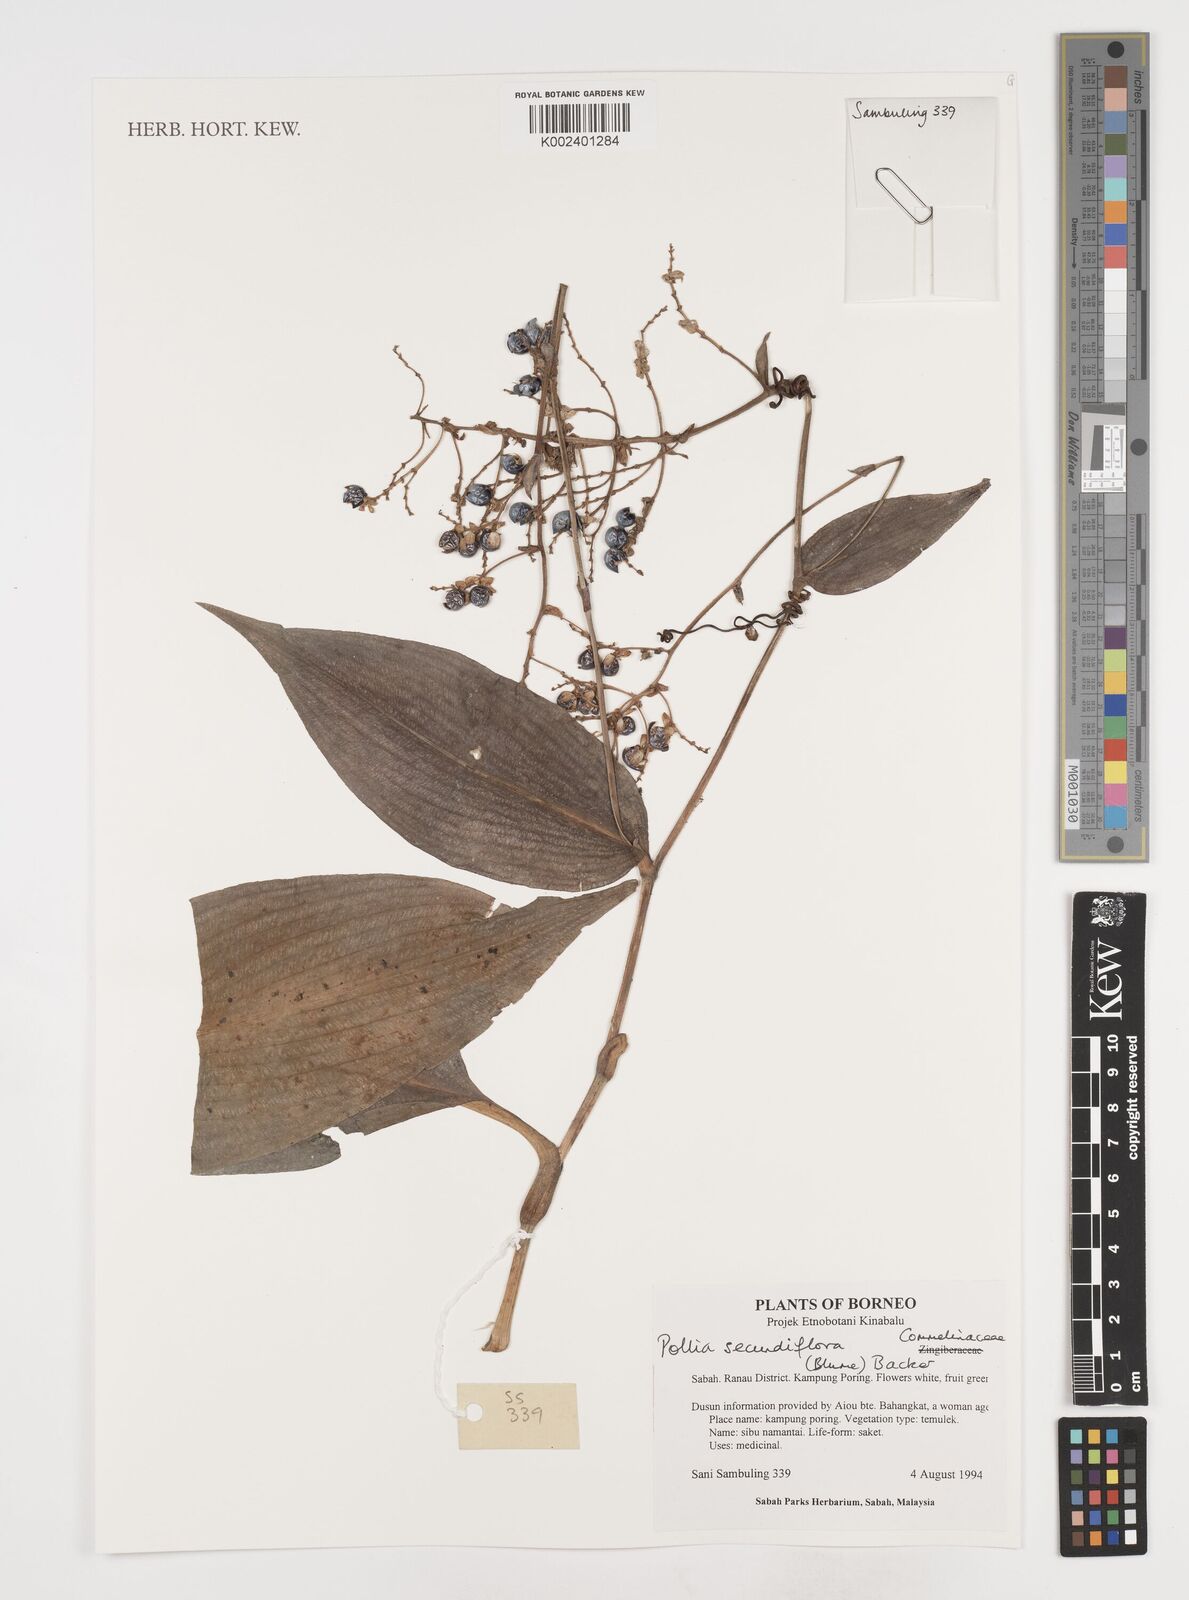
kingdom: Plantae
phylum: Tracheophyta
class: Liliopsida
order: Commelinales
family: Commelinaceae
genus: Pollia
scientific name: Pollia secundiflora
